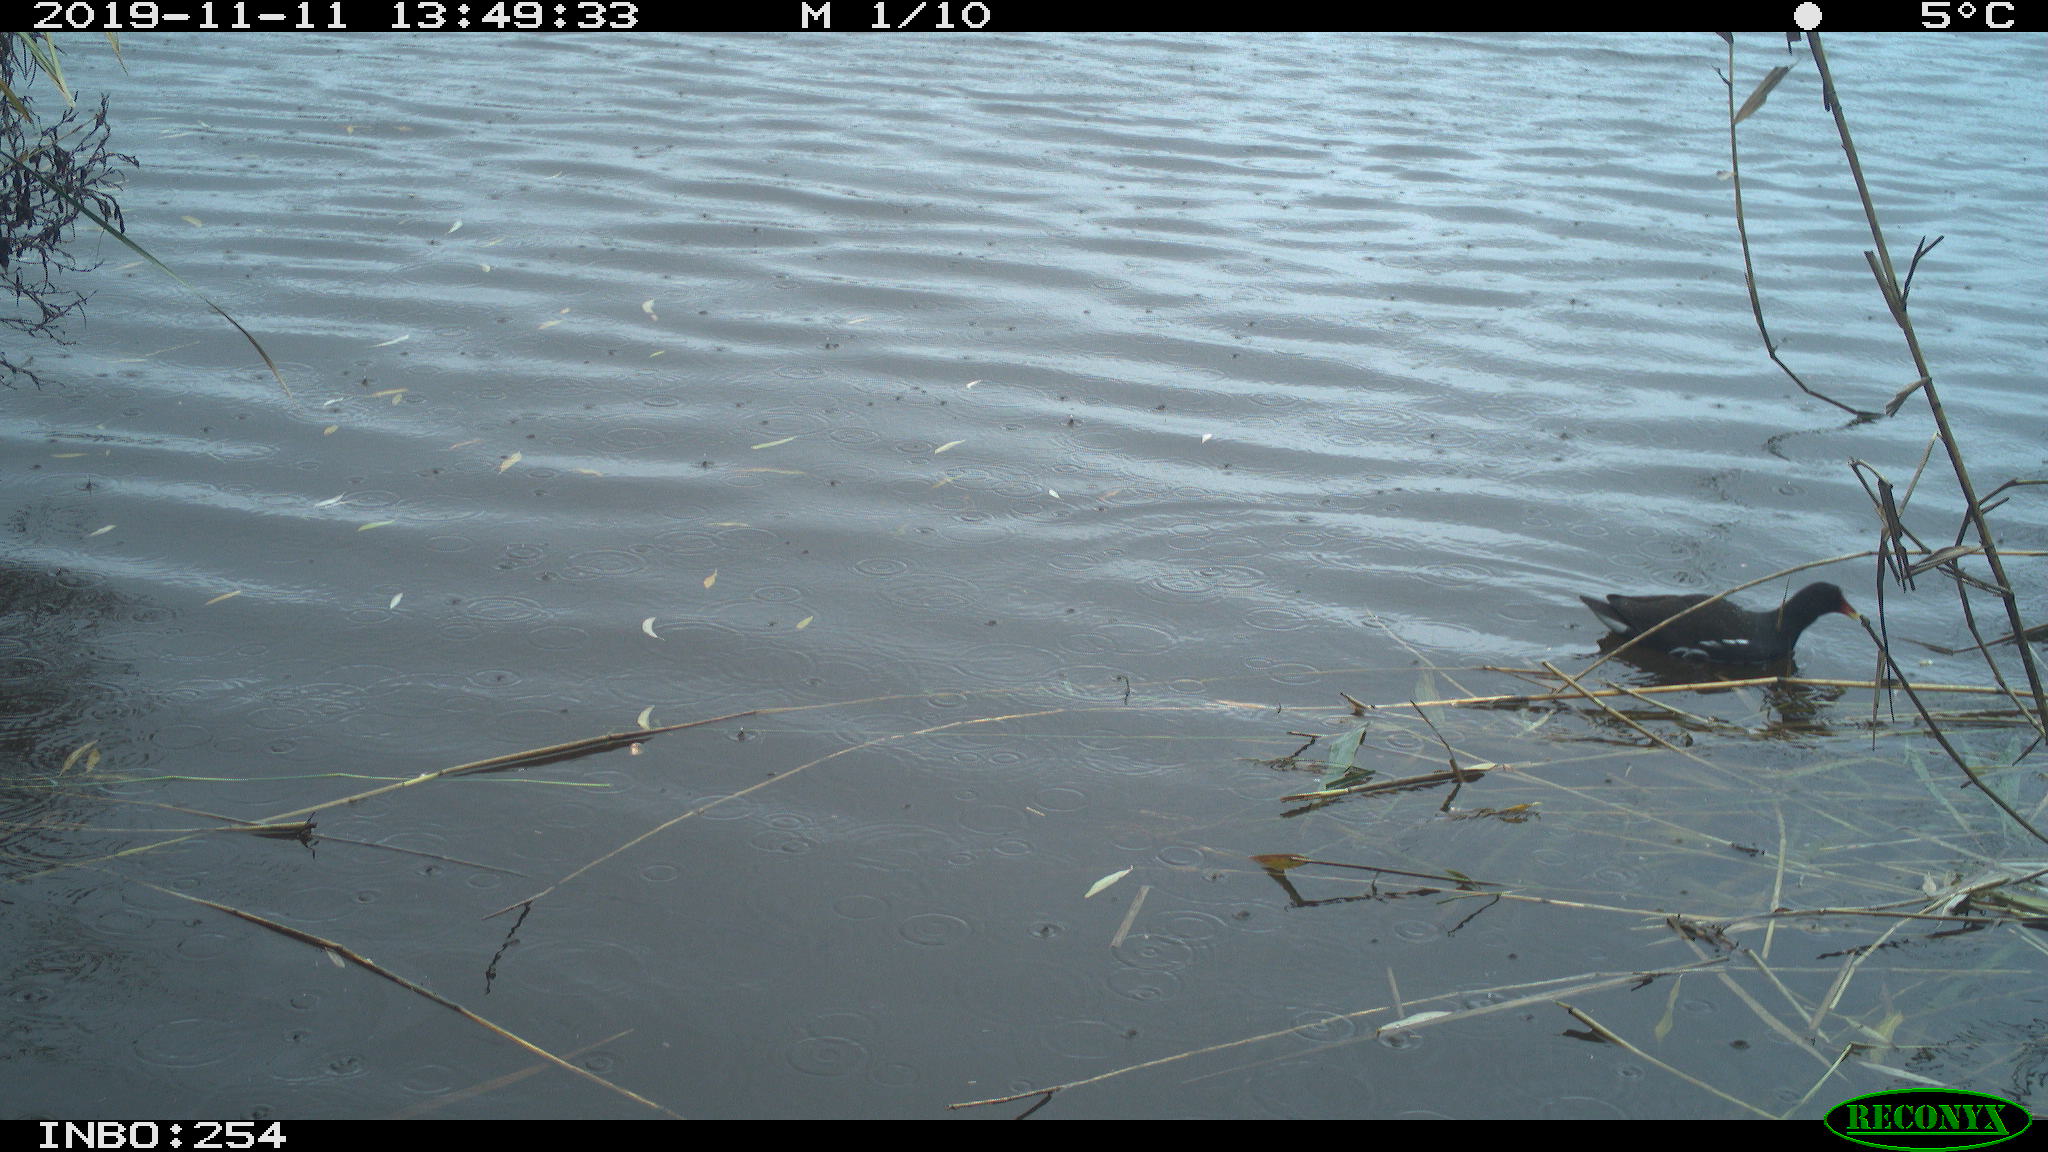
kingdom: Animalia
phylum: Chordata
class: Aves
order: Gruiformes
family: Rallidae
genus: Gallinula
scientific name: Gallinula chloropus
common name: Common moorhen
